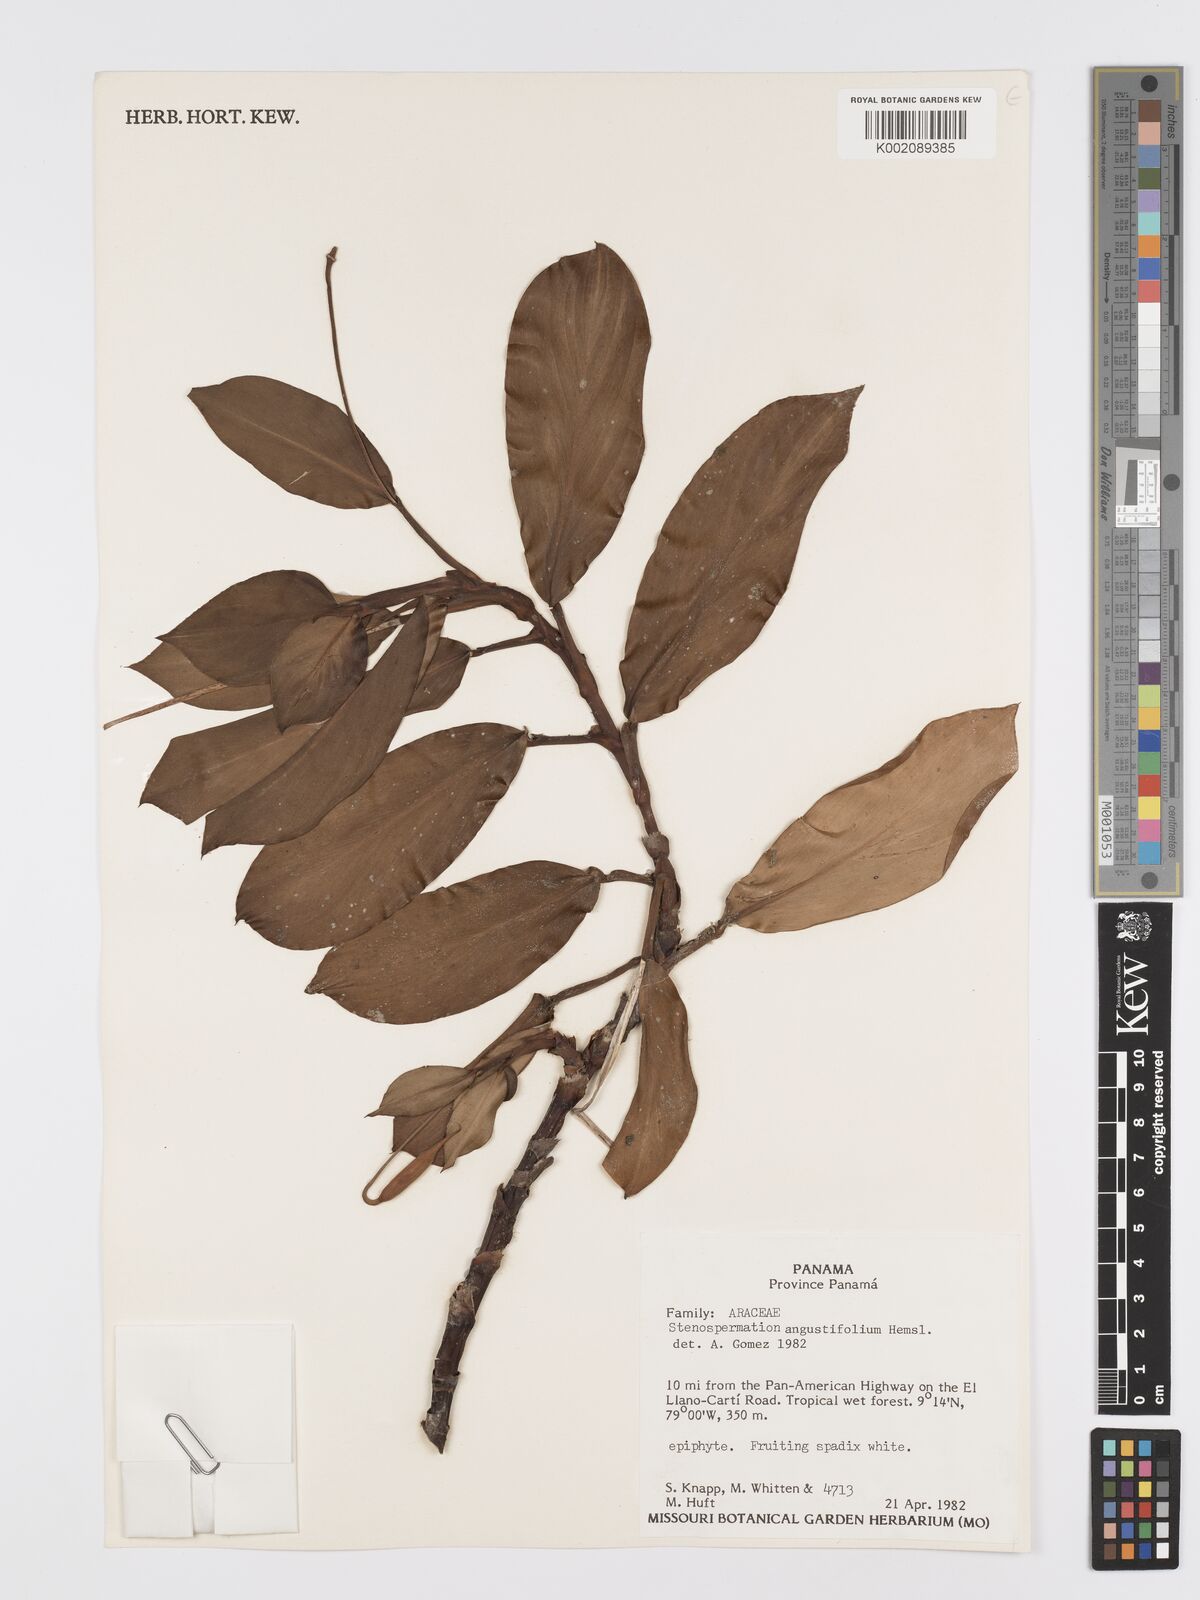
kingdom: Plantae
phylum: Tracheophyta
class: Liliopsida
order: Alismatales
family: Araceae
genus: Stenospermation
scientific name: Stenospermation angustifolium
